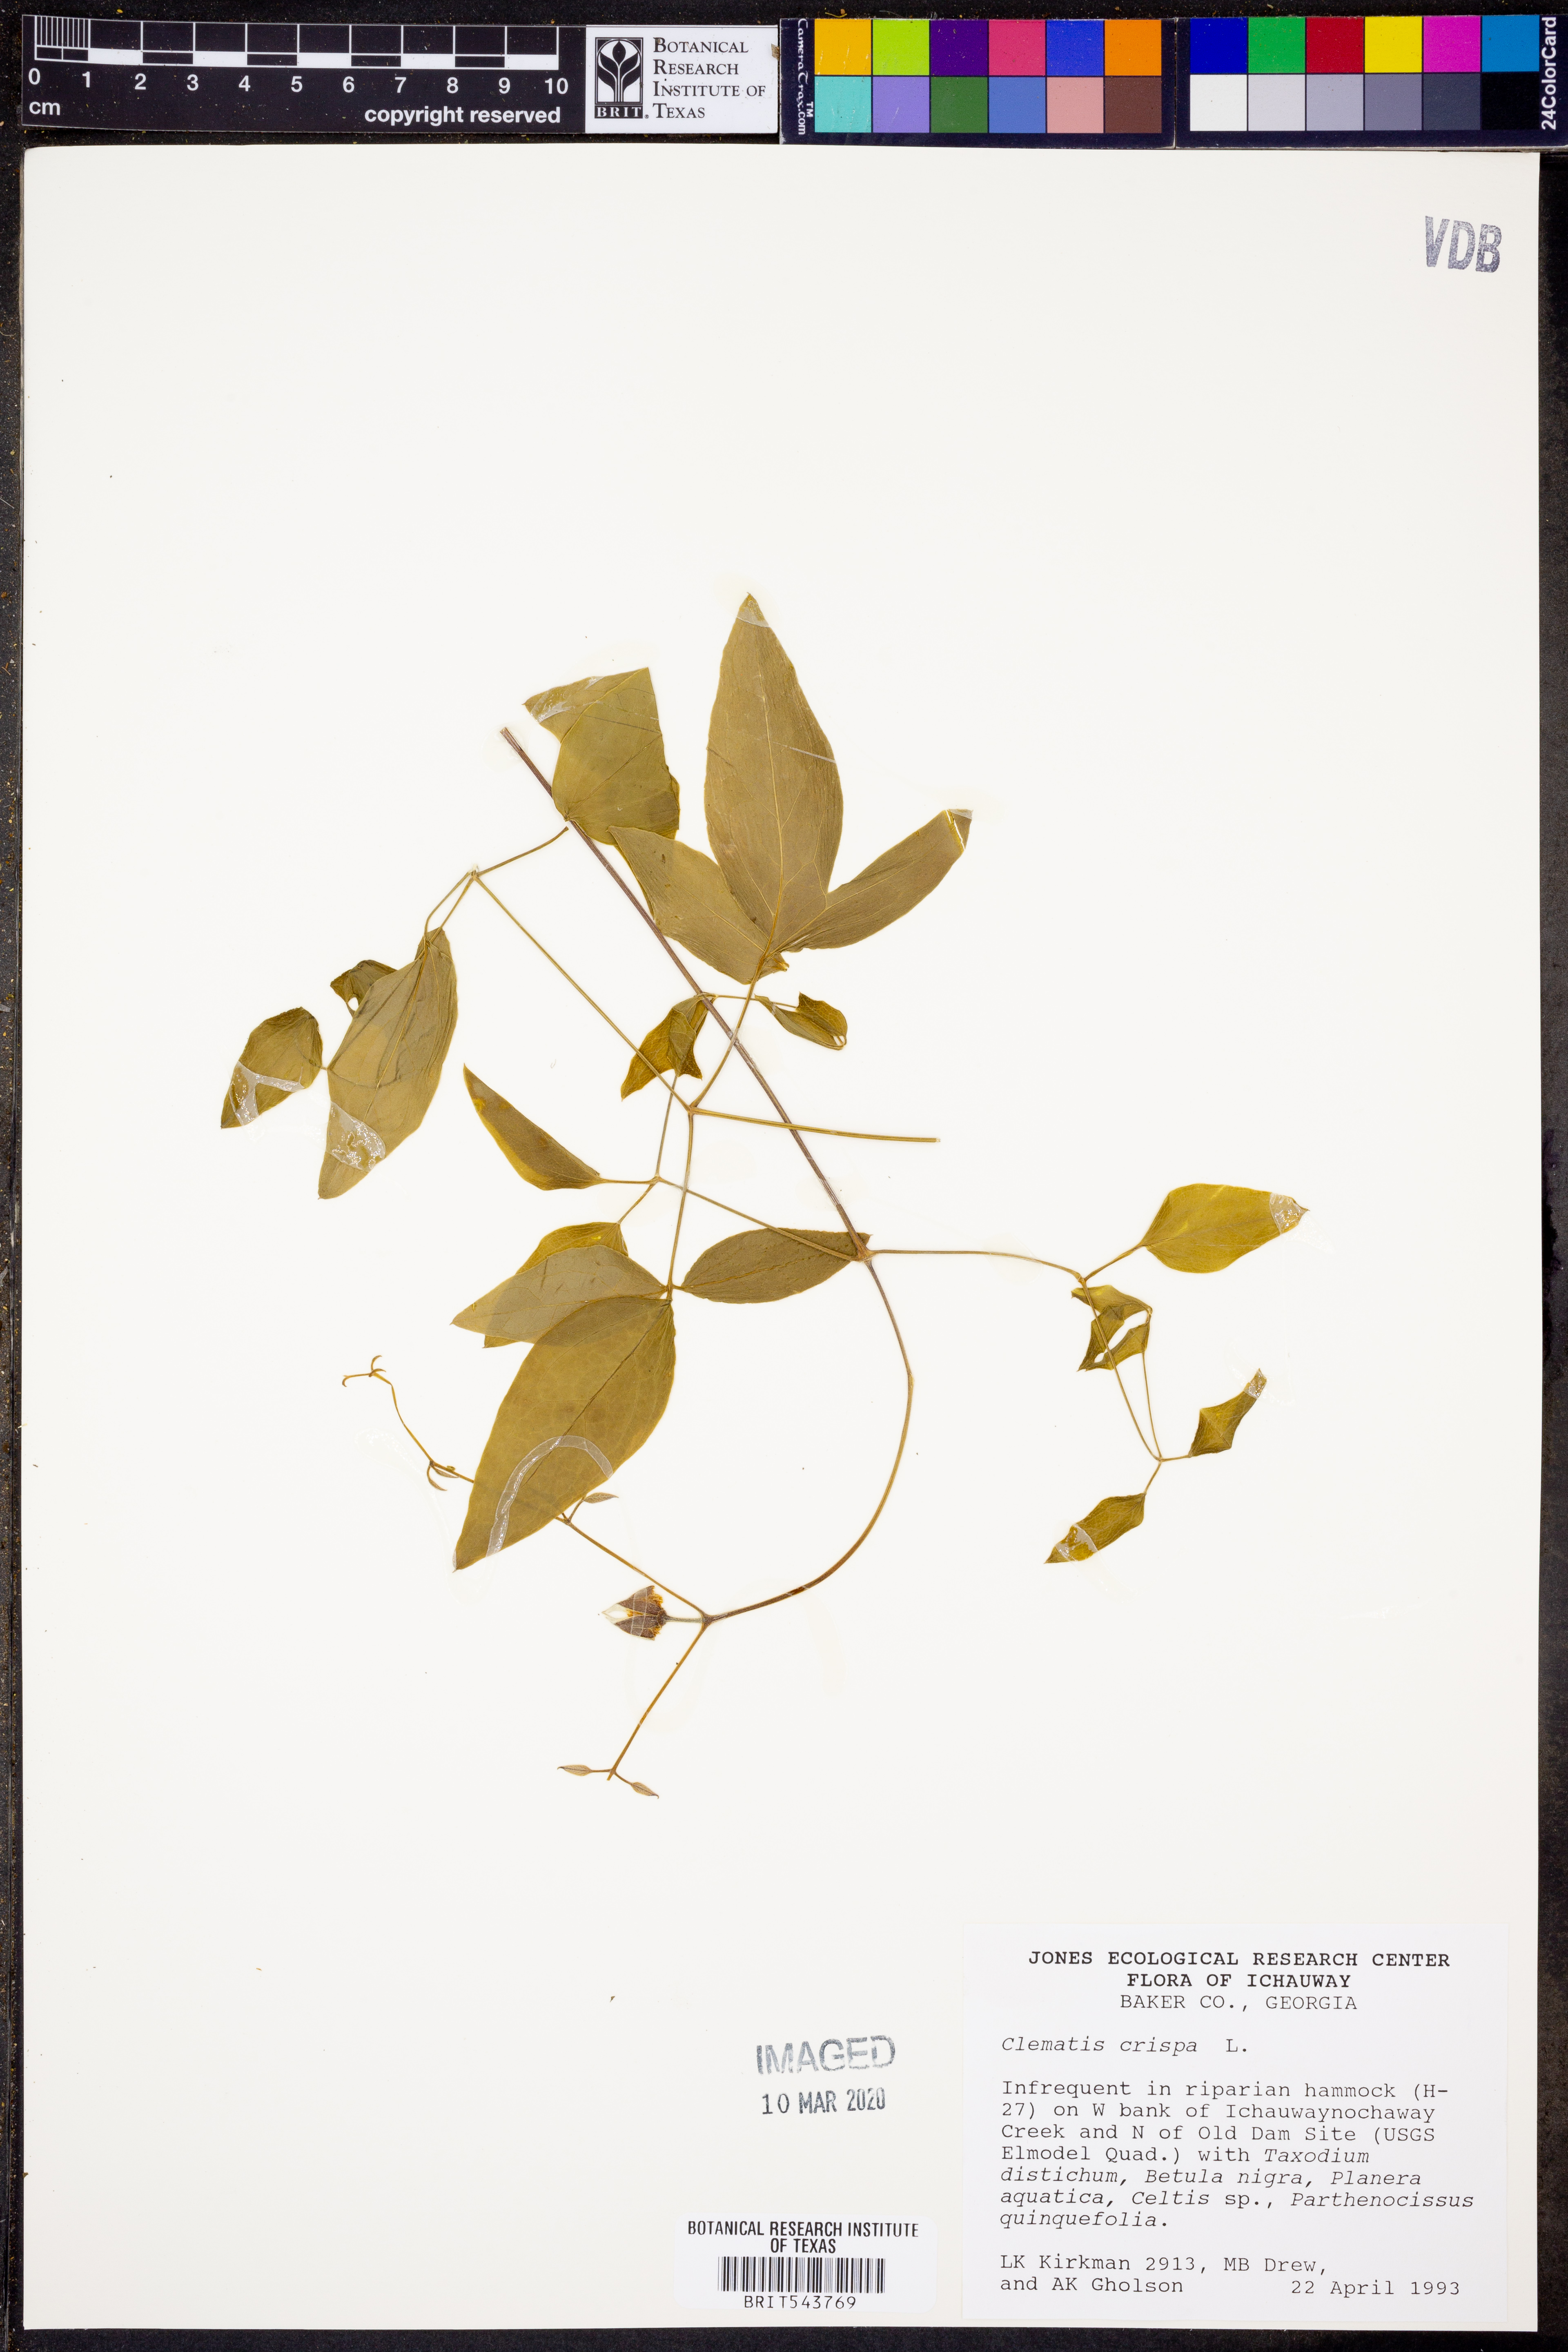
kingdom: Plantae
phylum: Tracheophyta
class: Magnoliopsida
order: Ranunculales
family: Ranunculaceae
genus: Clematis
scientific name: Clematis crispa
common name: Curly clematis
